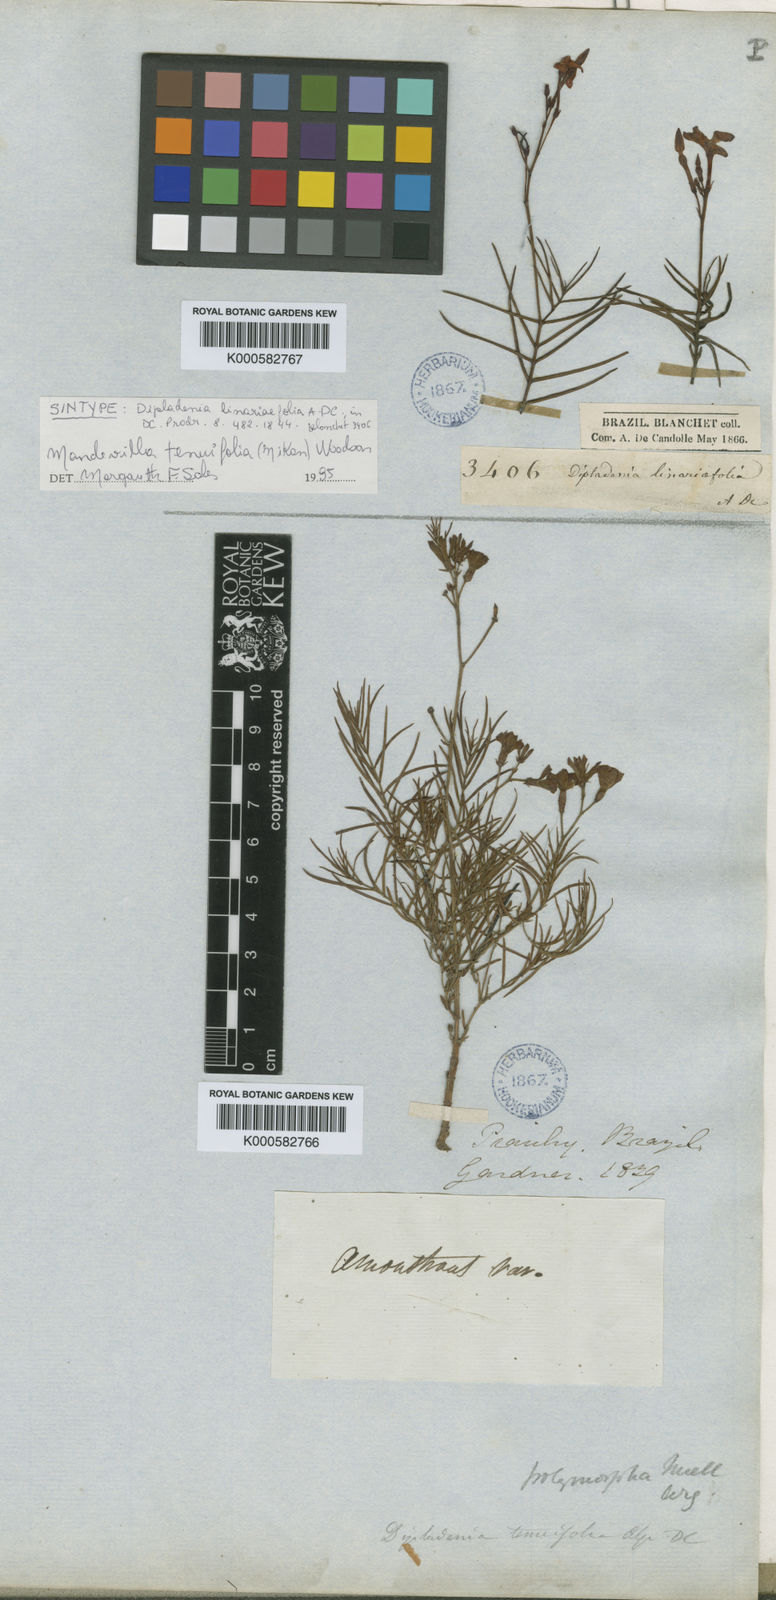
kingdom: Plantae
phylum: Tracheophyta
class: Magnoliopsida
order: Gentianales
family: Apocynaceae
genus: Mandevilla
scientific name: Mandevilla tenuifolia
